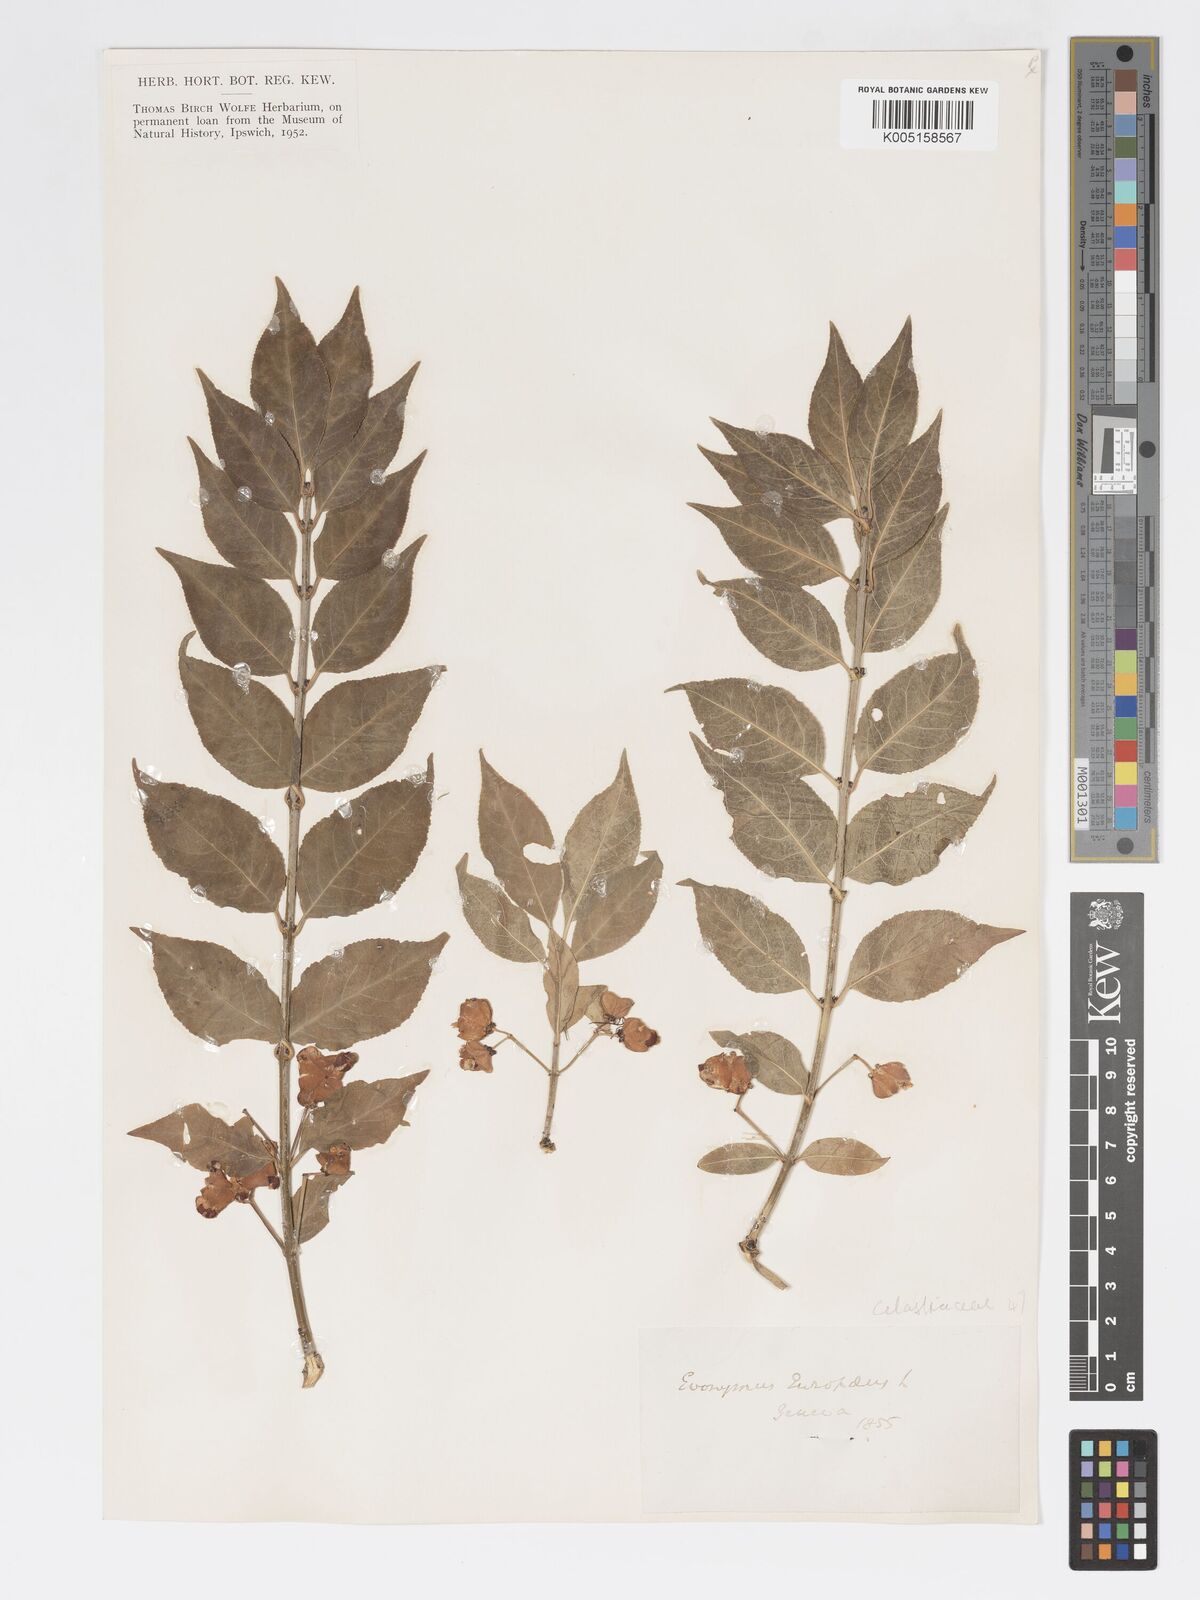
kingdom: Plantae
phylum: Tracheophyta
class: Magnoliopsida
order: Celastrales
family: Celastraceae
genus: Euonymus
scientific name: Euonymus europaeus
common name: Spindle
